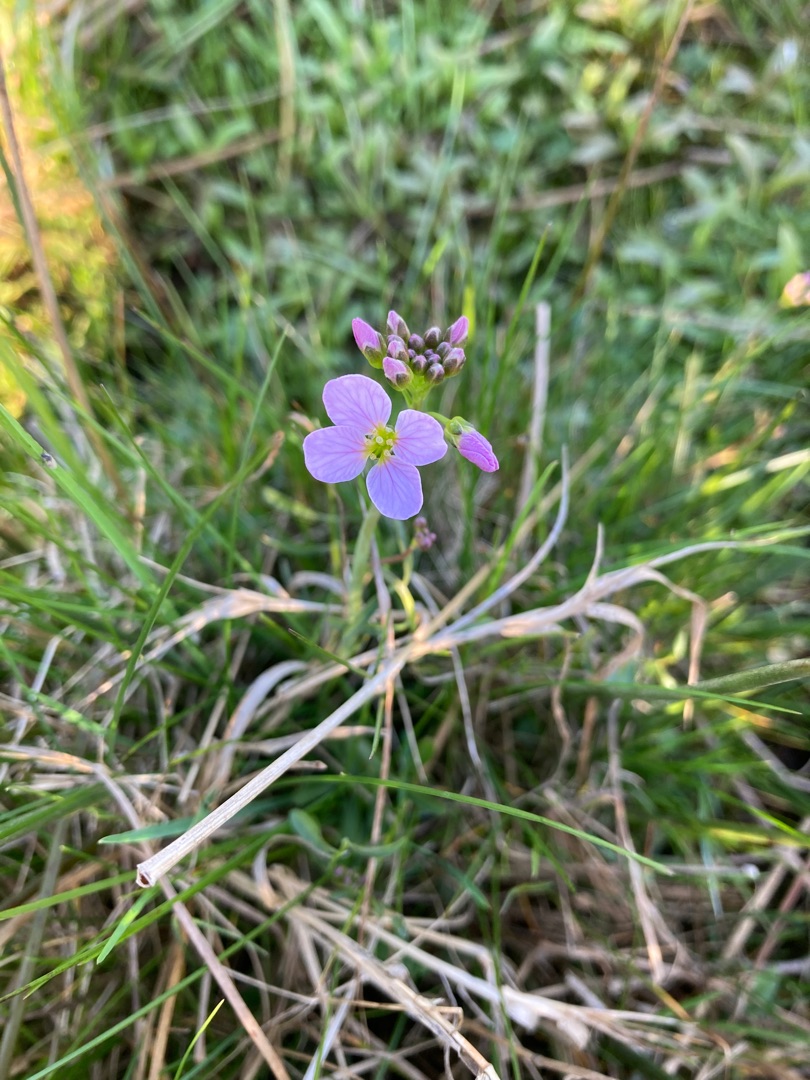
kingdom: Plantae
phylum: Tracheophyta
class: Magnoliopsida
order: Brassicales
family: Brassicaceae
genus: Cardamine
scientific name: Cardamine pratensis
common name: Engkarse
